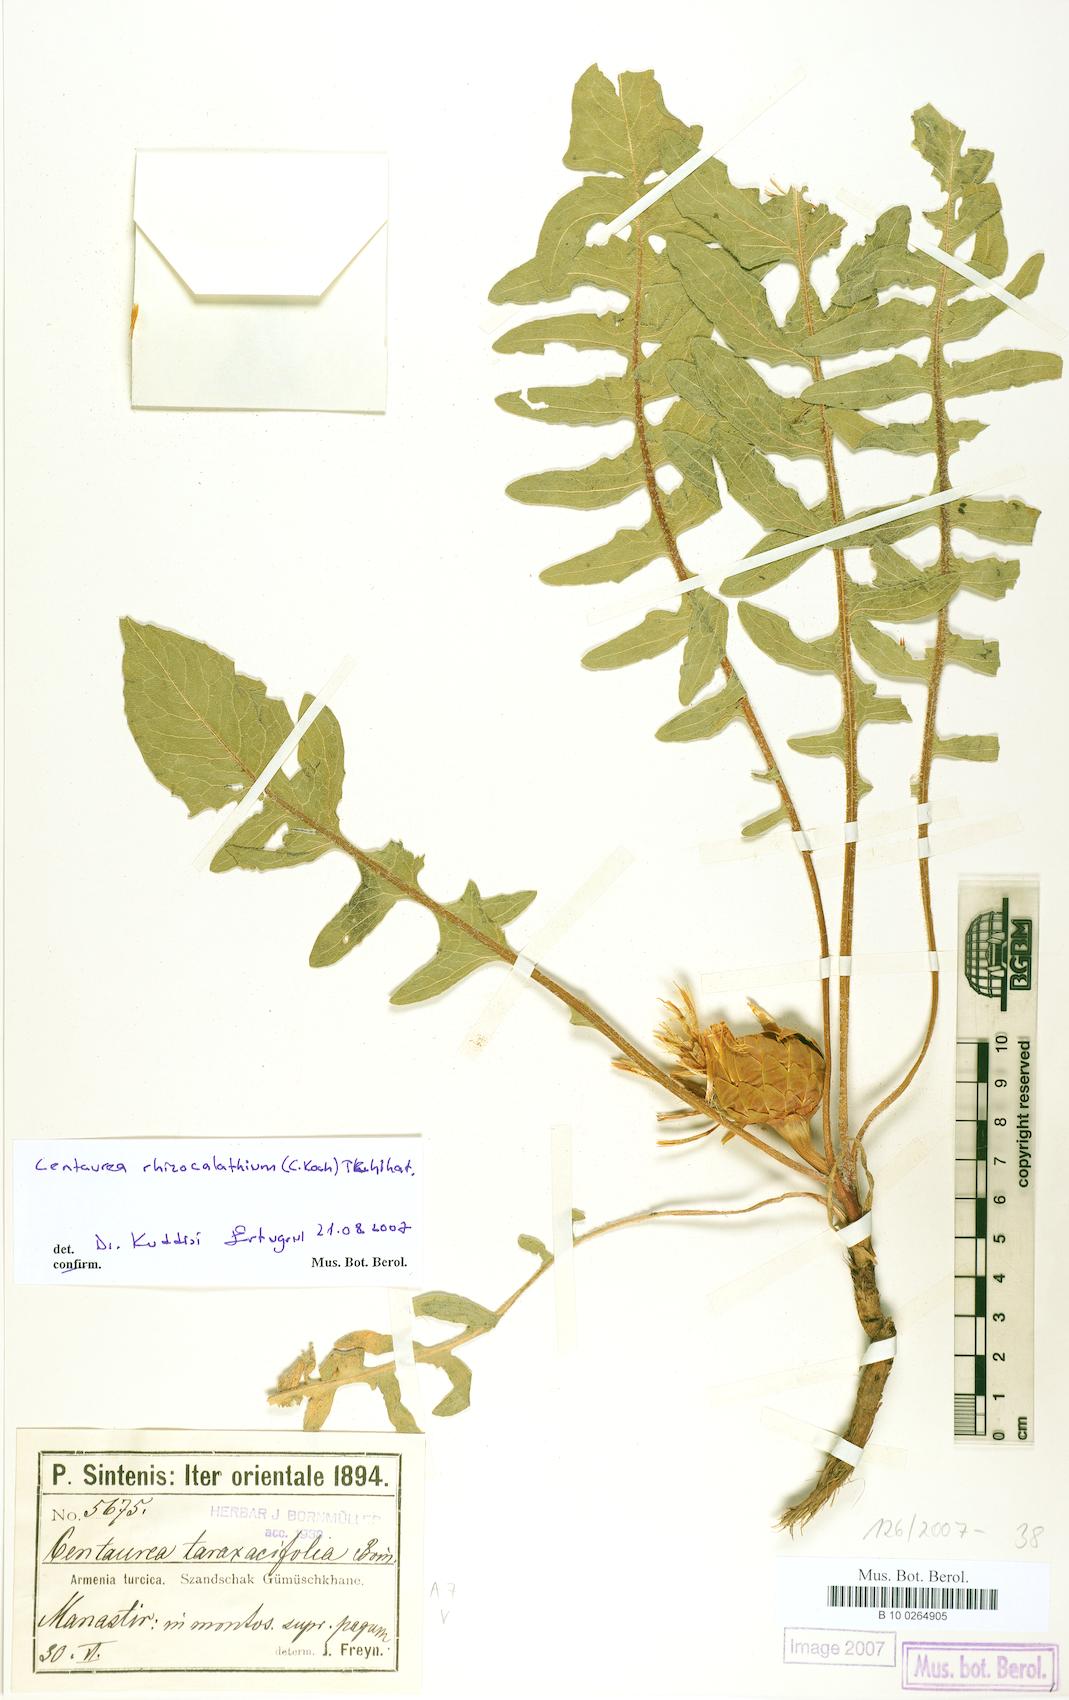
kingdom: Plantae
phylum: Tracheophyta
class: Magnoliopsida
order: Asterales
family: Asteraceae
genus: Centaurea
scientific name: Centaurea
